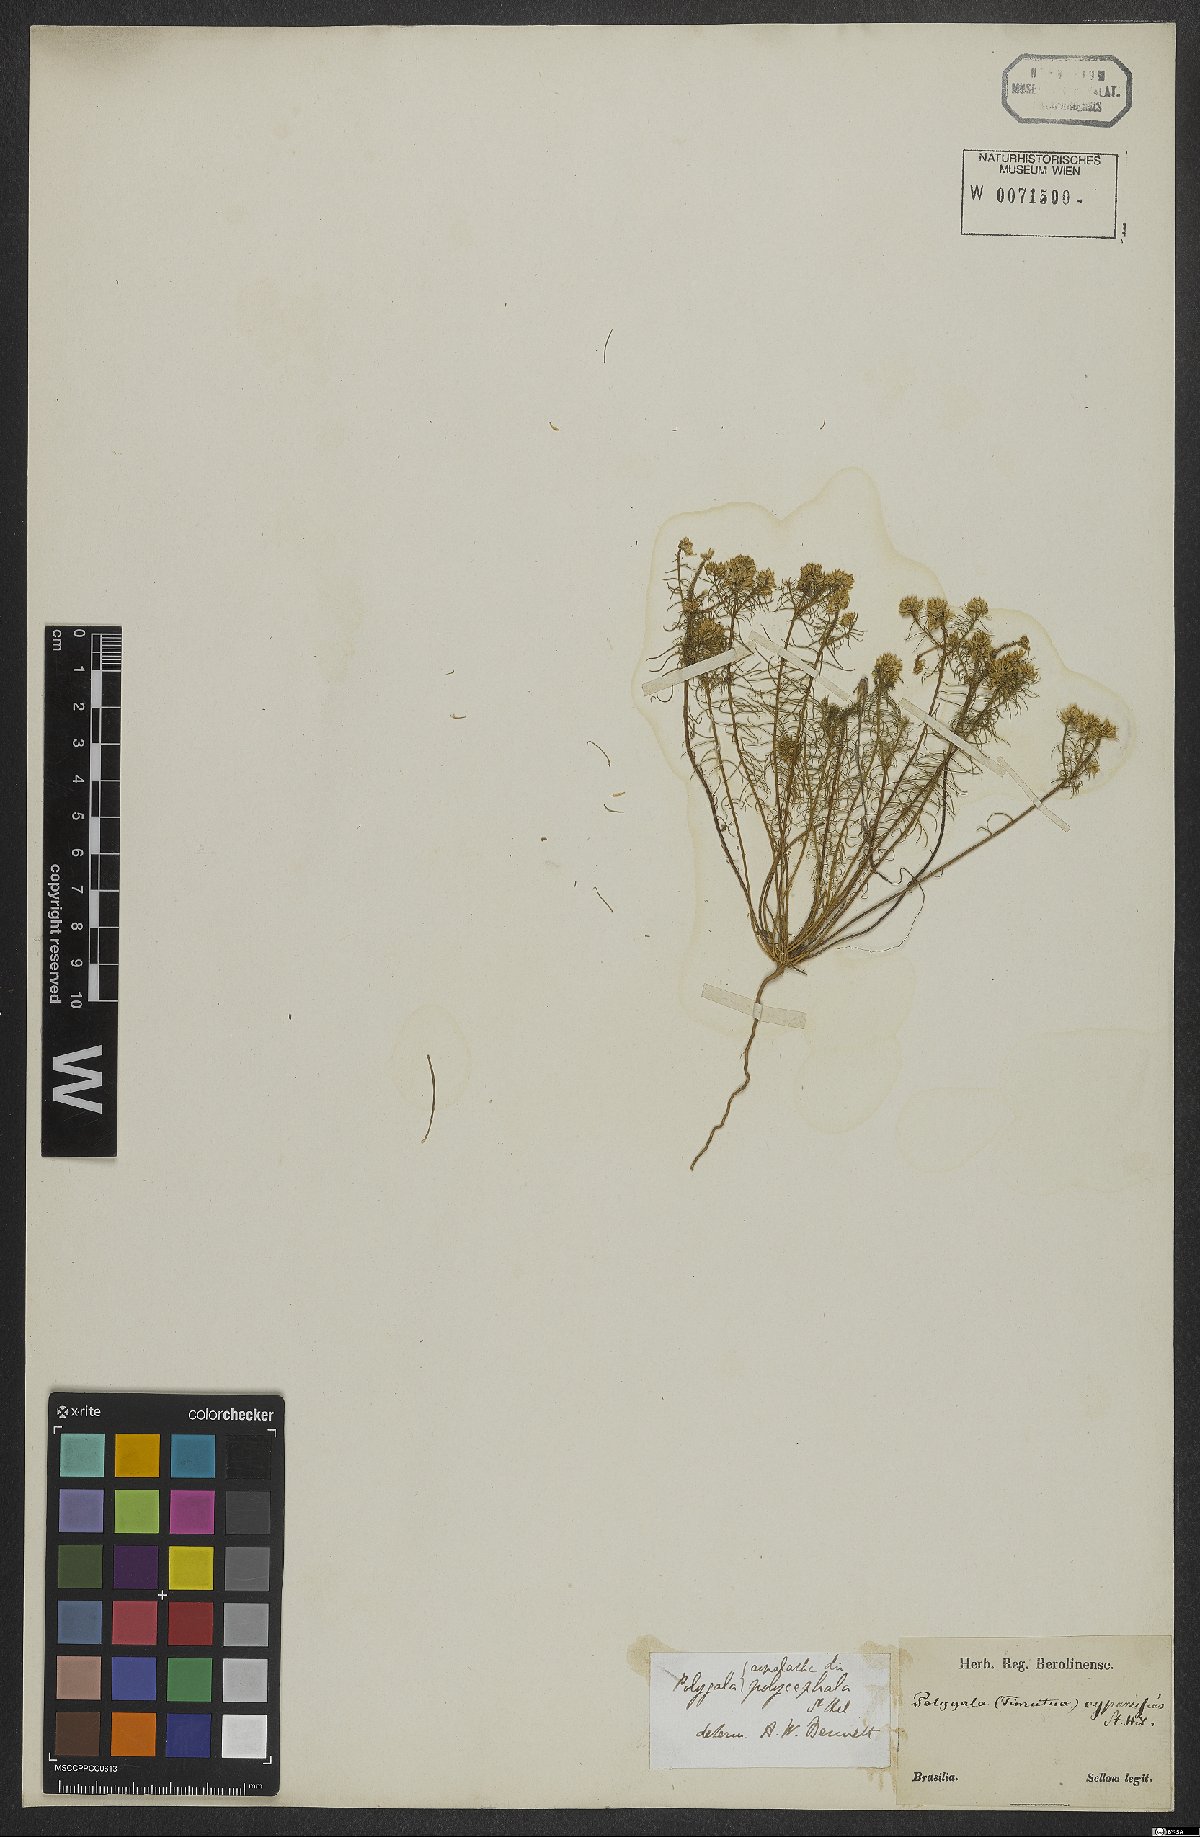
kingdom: Plantae
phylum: Tracheophyta
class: Magnoliopsida
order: Fabales
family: Polygalaceae
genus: Polygala
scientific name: Polygala aspalatha
